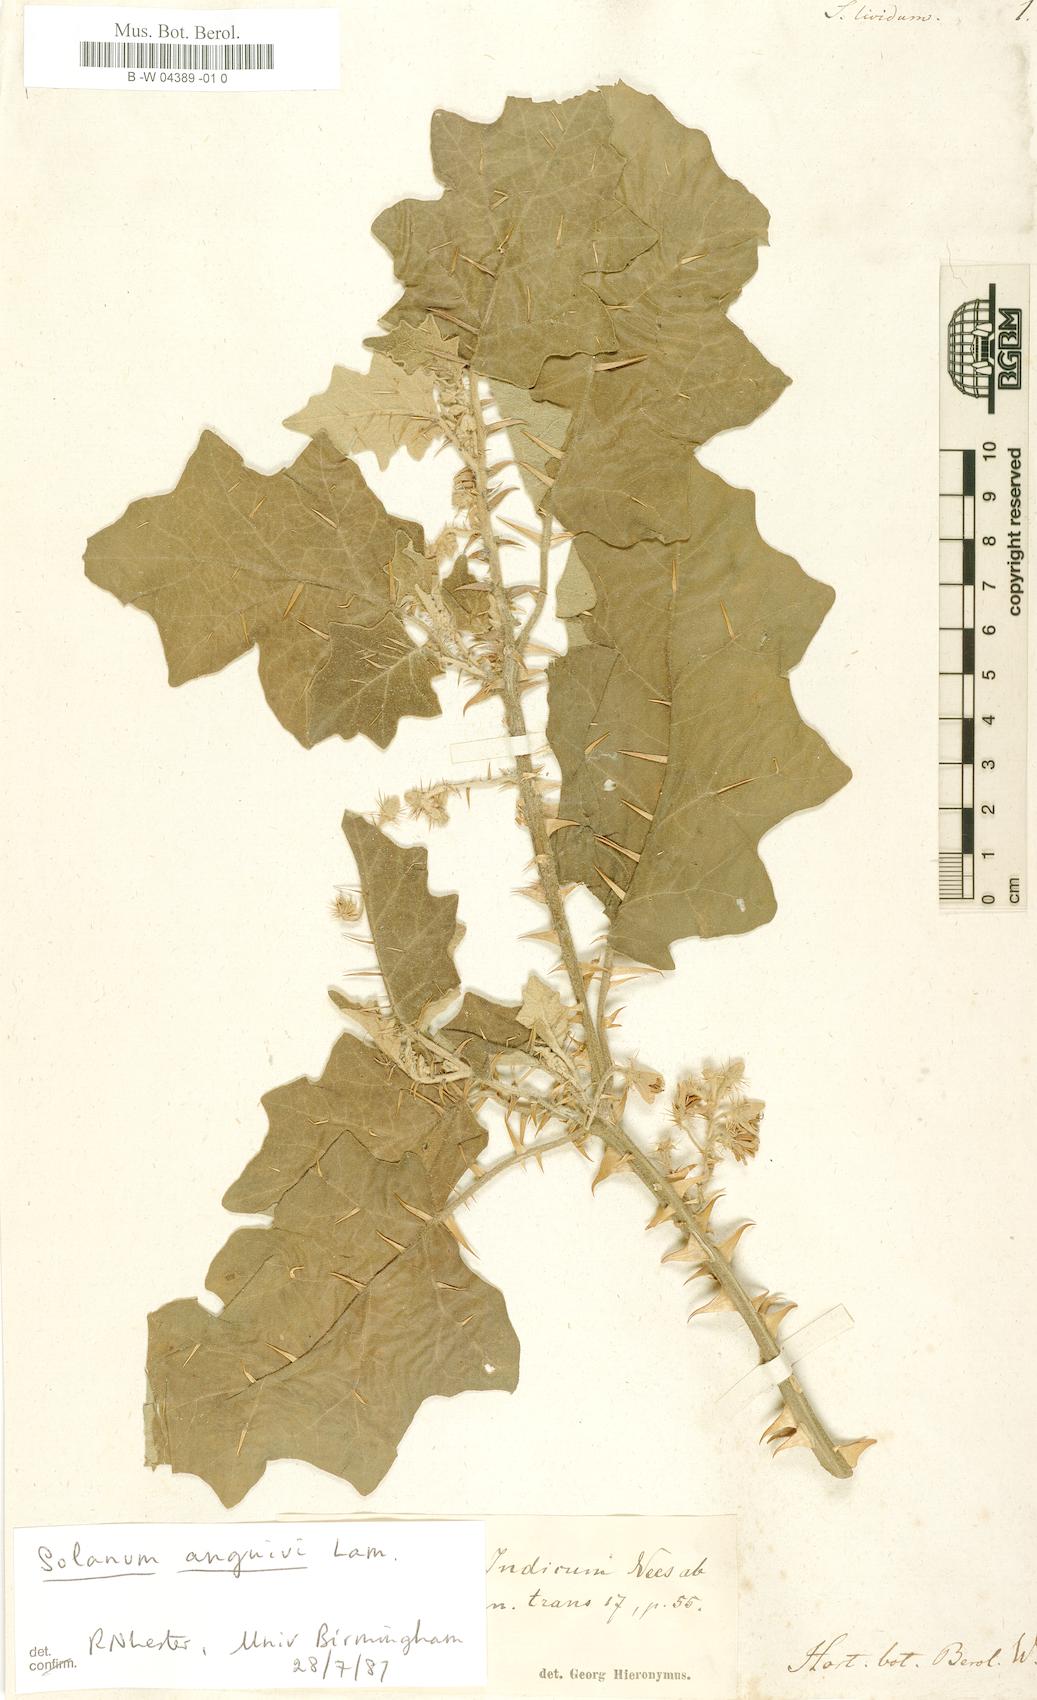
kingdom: Plantae
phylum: Tracheophyta
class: Magnoliopsida
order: Solanales
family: Solanaceae
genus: Solanum
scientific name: Solanum
